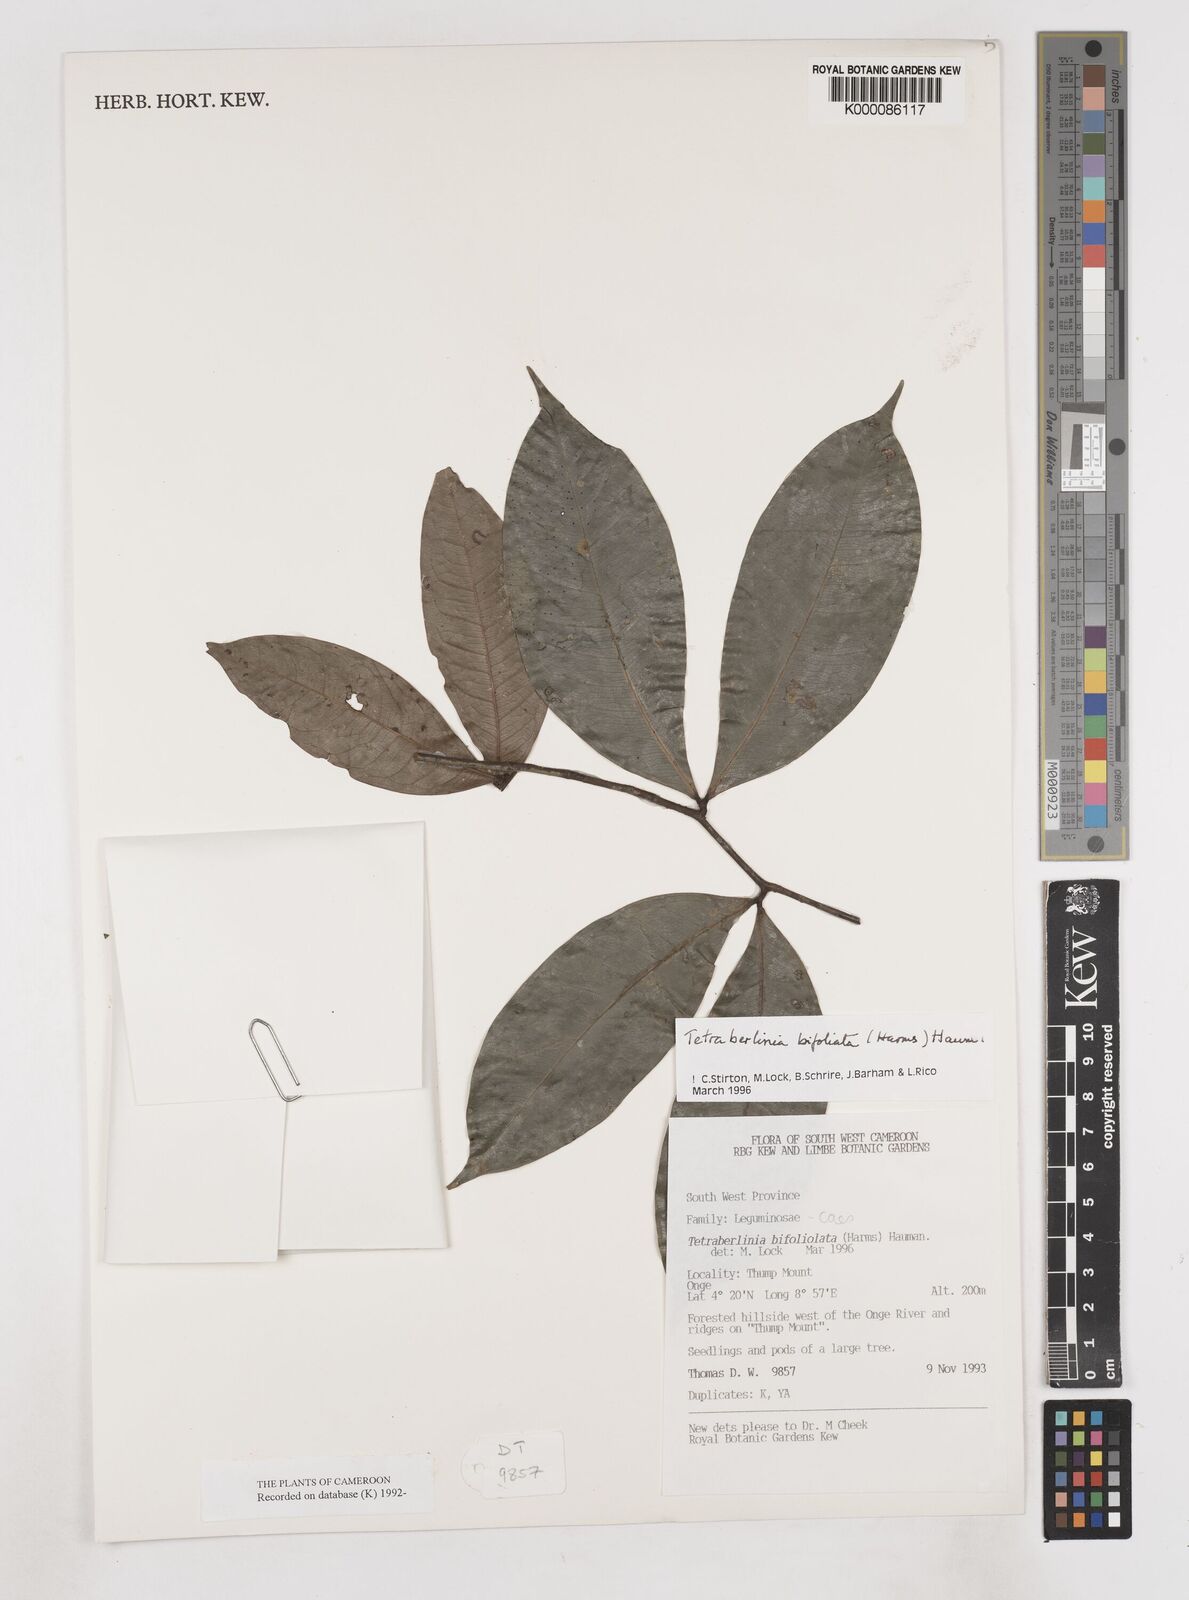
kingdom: Plantae
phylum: Tracheophyta
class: Magnoliopsida
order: Fabales
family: Fabaceae
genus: Tetraberlinia
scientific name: Tetraberlinia bifoliolata
